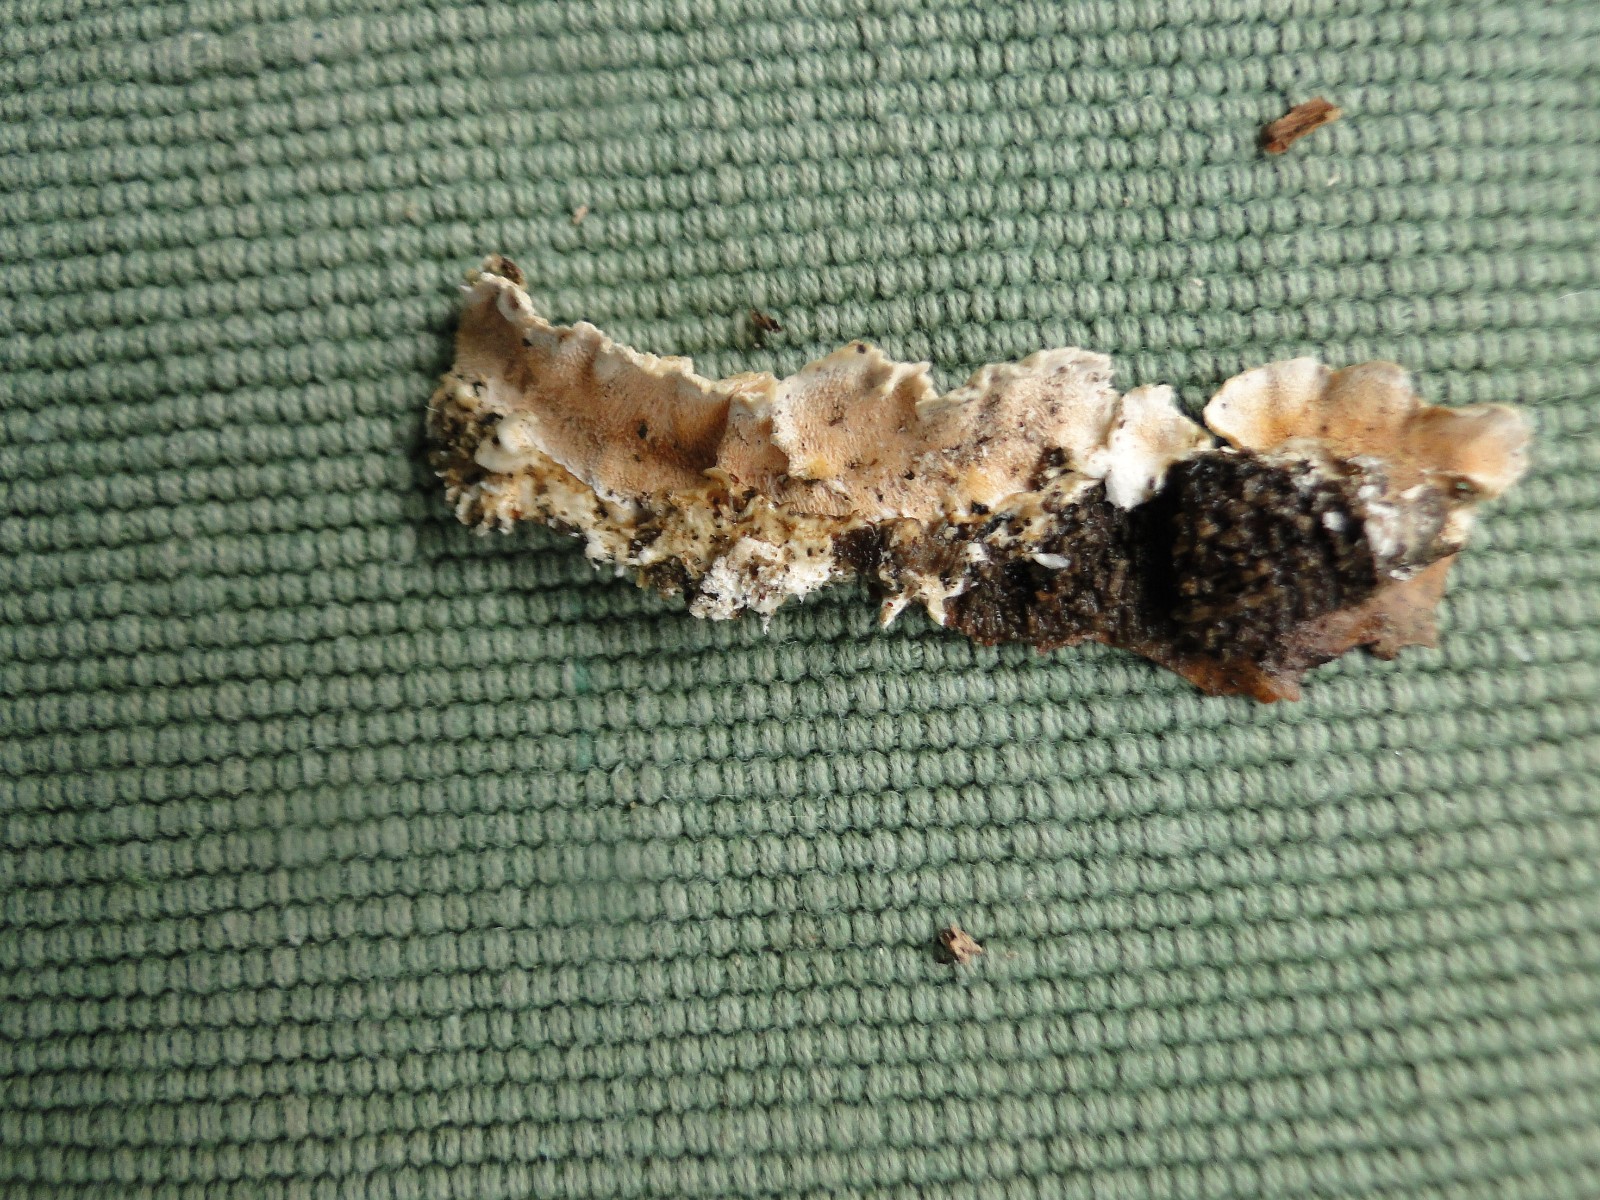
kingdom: Fungi
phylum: Basidiomycota
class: Agaricomycetes
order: Polyporales
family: Steccherinaceae
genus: Steccherinum
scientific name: Steccherinum ochraceum
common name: almindelig skønpig
